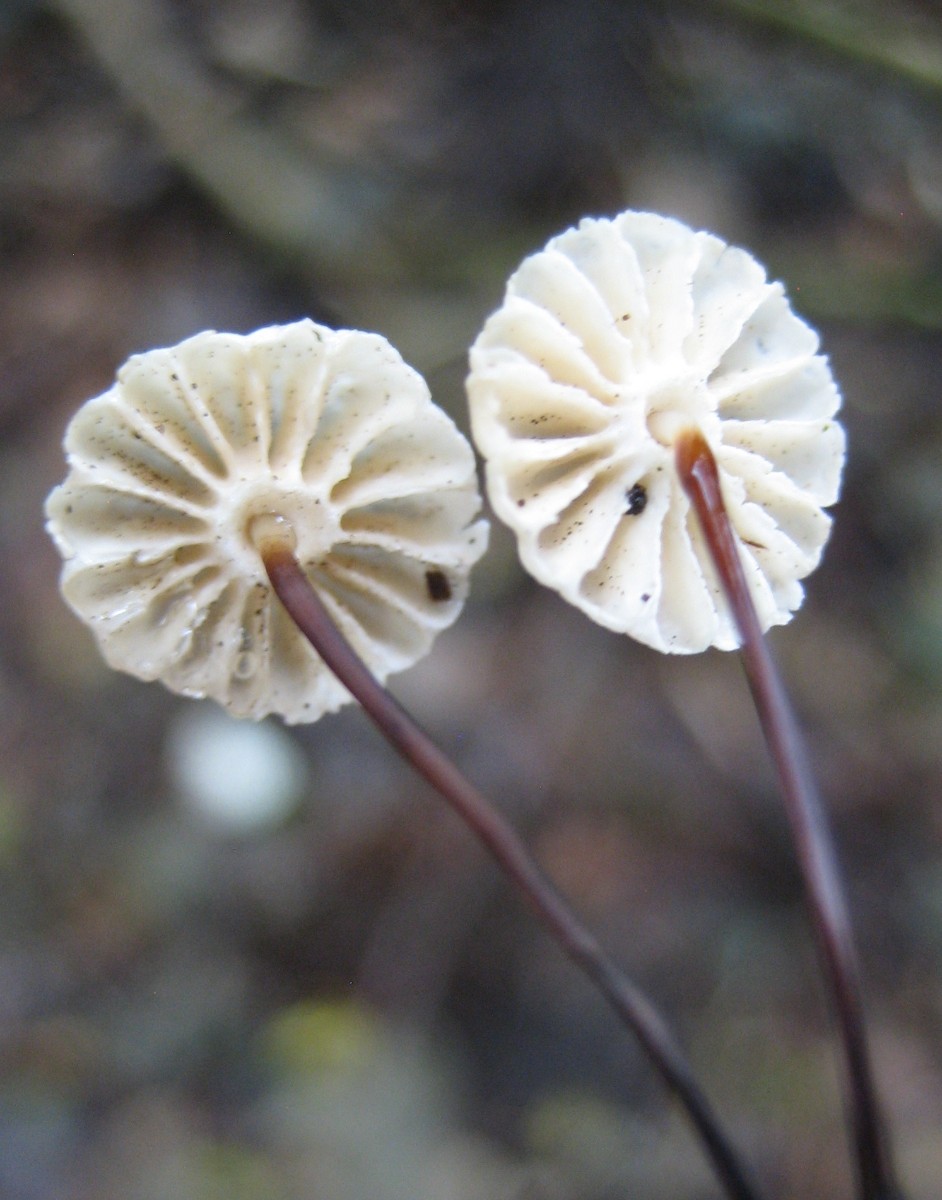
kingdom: Fungi
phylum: Basidiomycota
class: Agaricomycetes
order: Agaricales
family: Marasmiaceae
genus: Marasmius
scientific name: Marasmius rotula
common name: hjul-bruskhat
